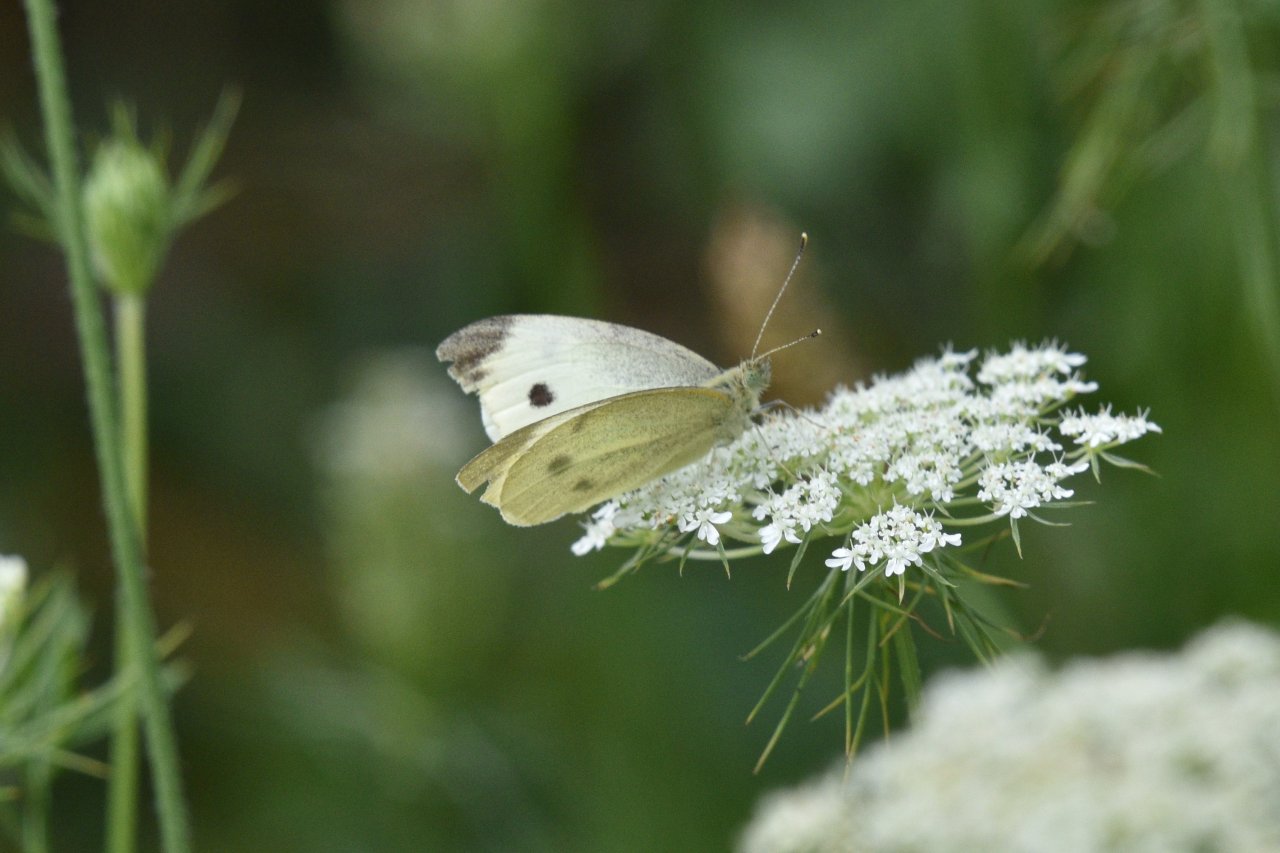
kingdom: Animalia
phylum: Arthropoda
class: Insecta
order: Lepidoptera
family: Pieridae
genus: Pieris
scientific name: Pieris rapae
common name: Cabbage White
